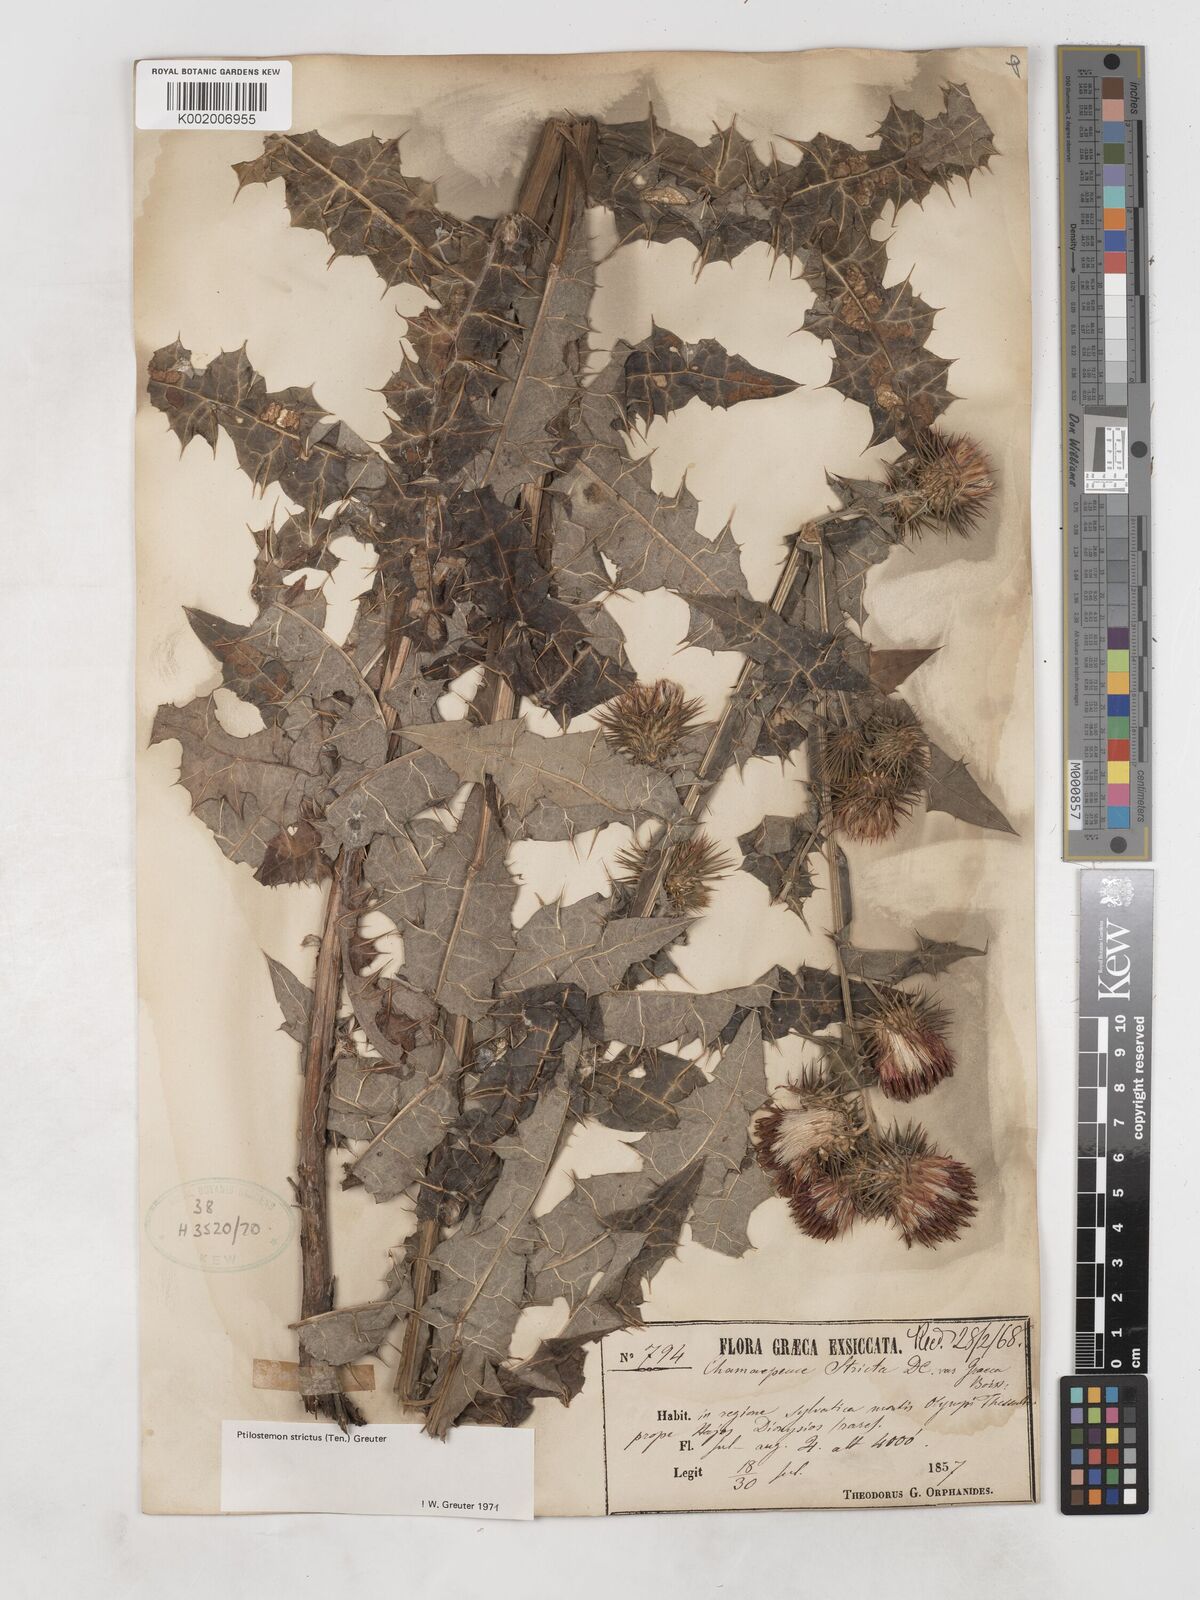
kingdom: Plantae
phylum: Tracheophyta
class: Magnoliopsida
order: Asterales
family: Asteraceae
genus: Ptilostemon
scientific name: Ptilostemon strictus
